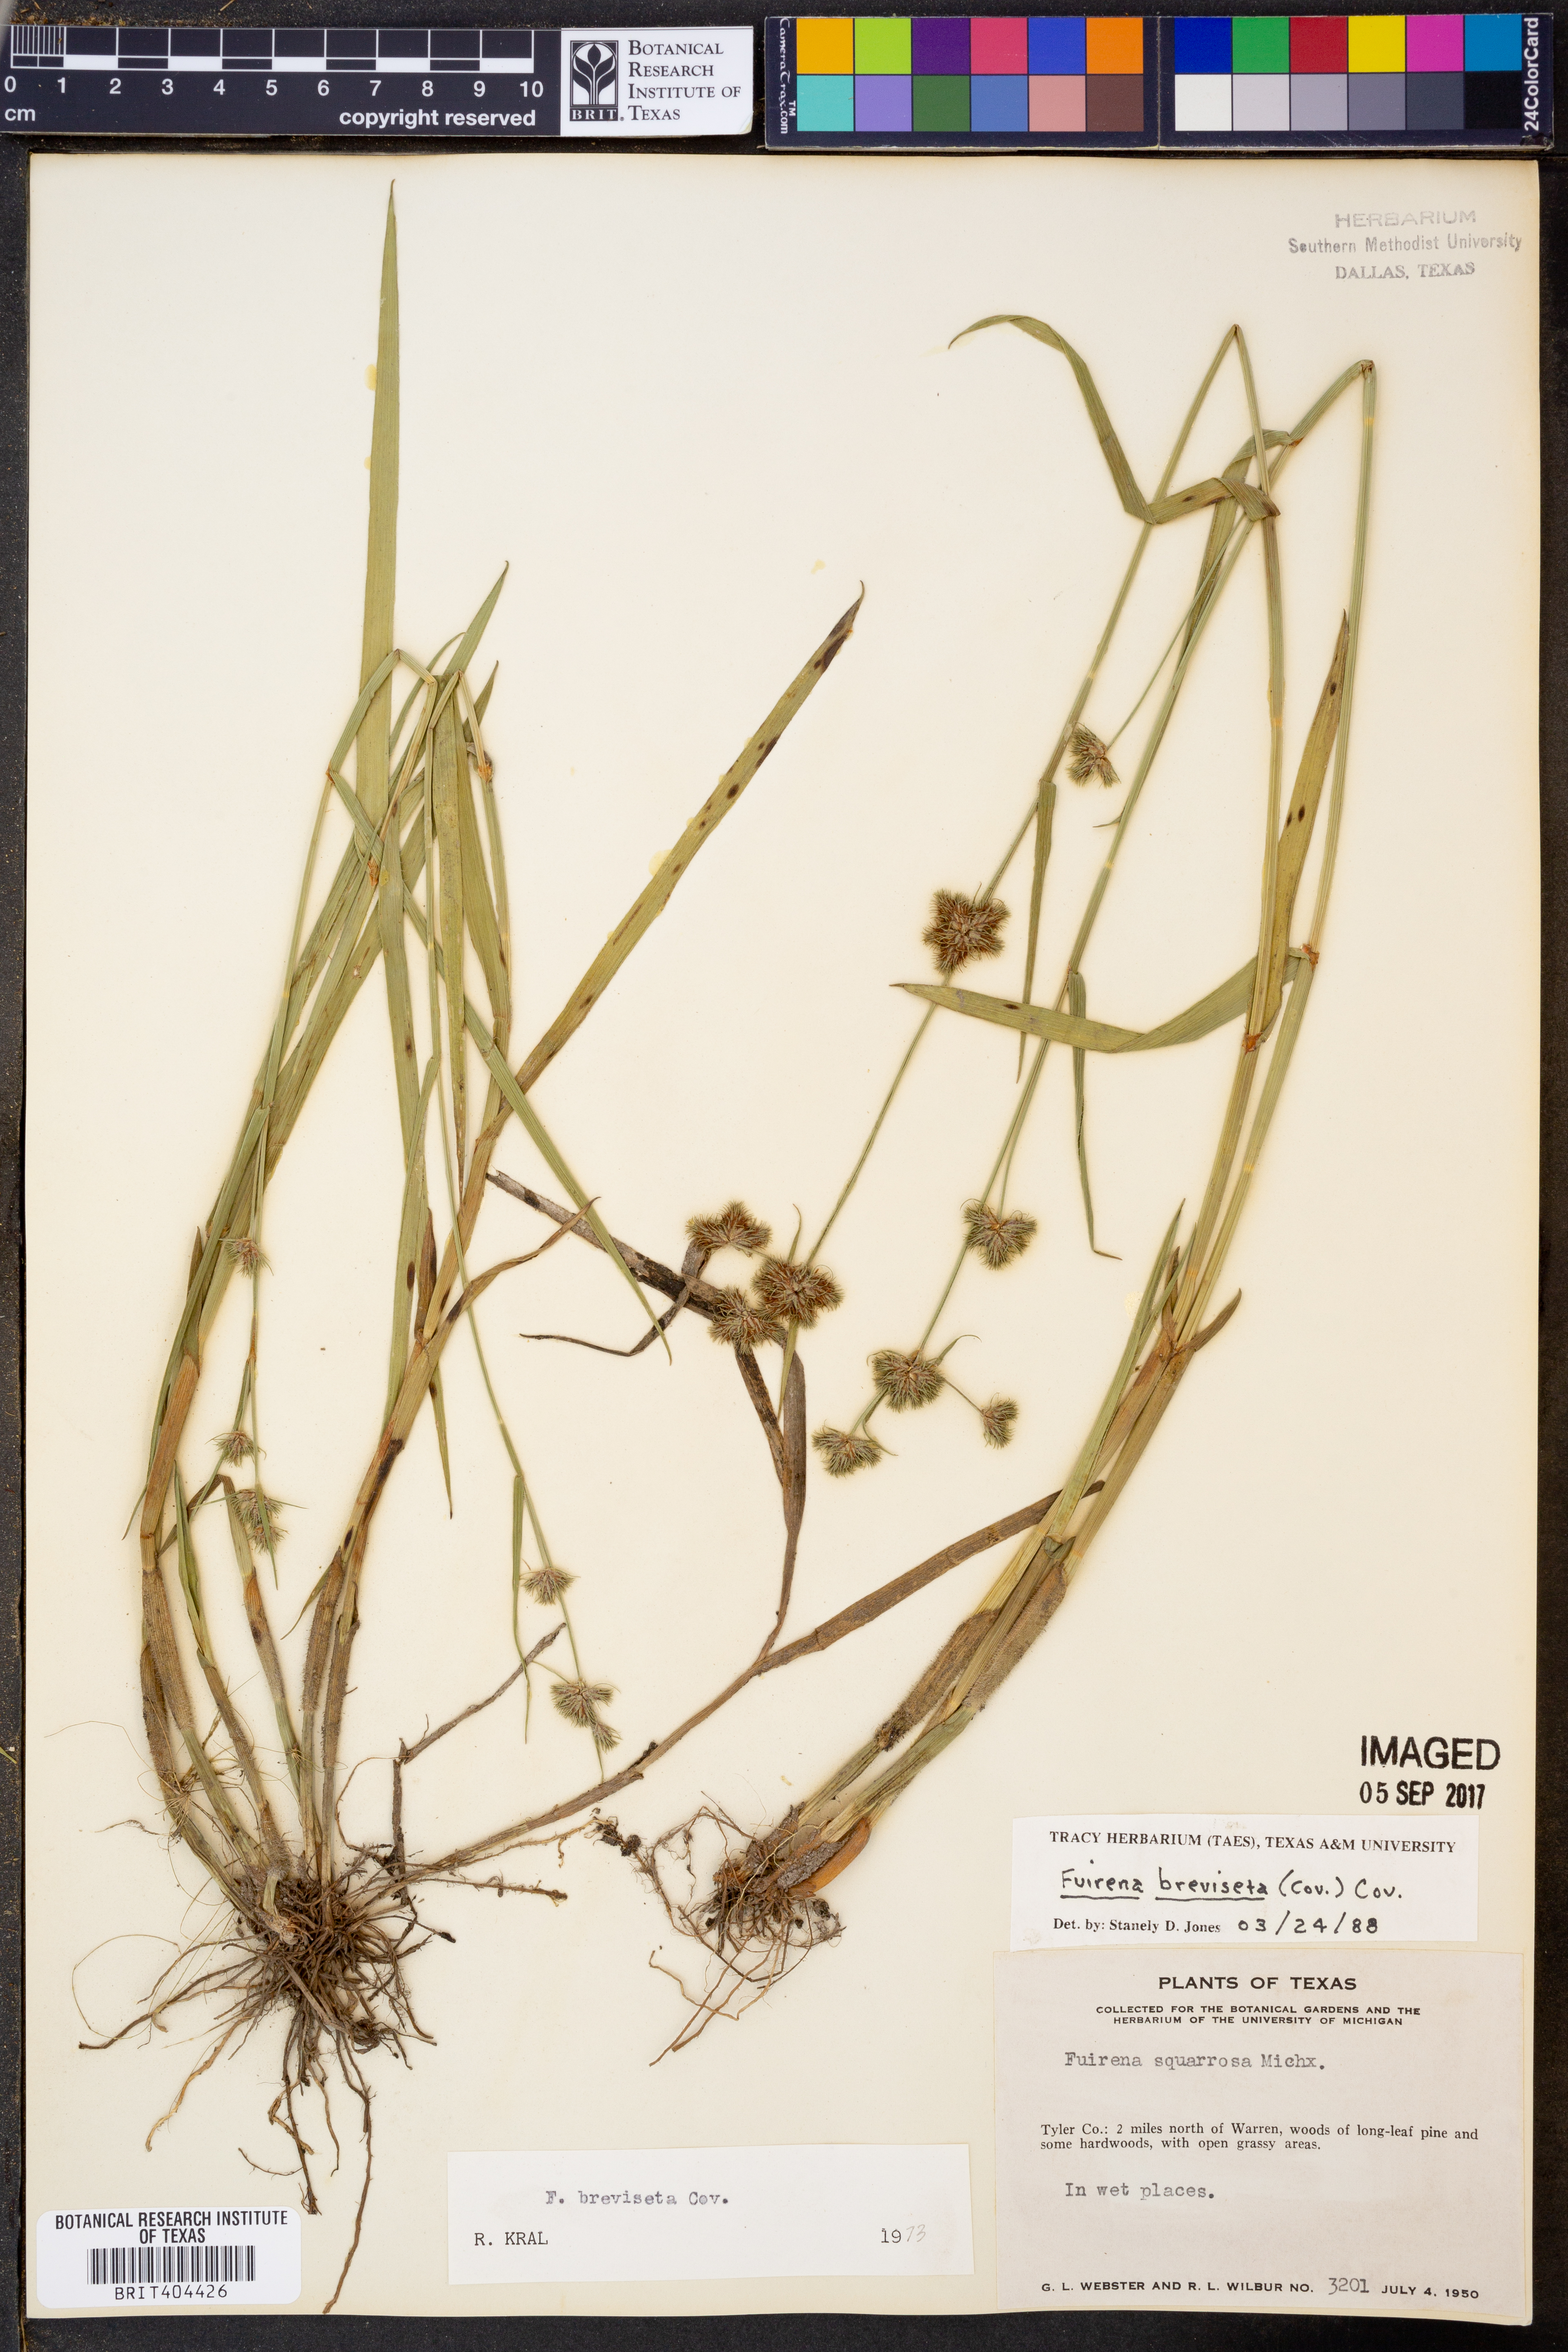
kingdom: Plantae
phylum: Tracheophyta
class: Liliopsida
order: Poales
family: Cyperaceae
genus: Fuirena
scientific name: Fuirena breviseta
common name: Saltmarsh umbrella sedge
